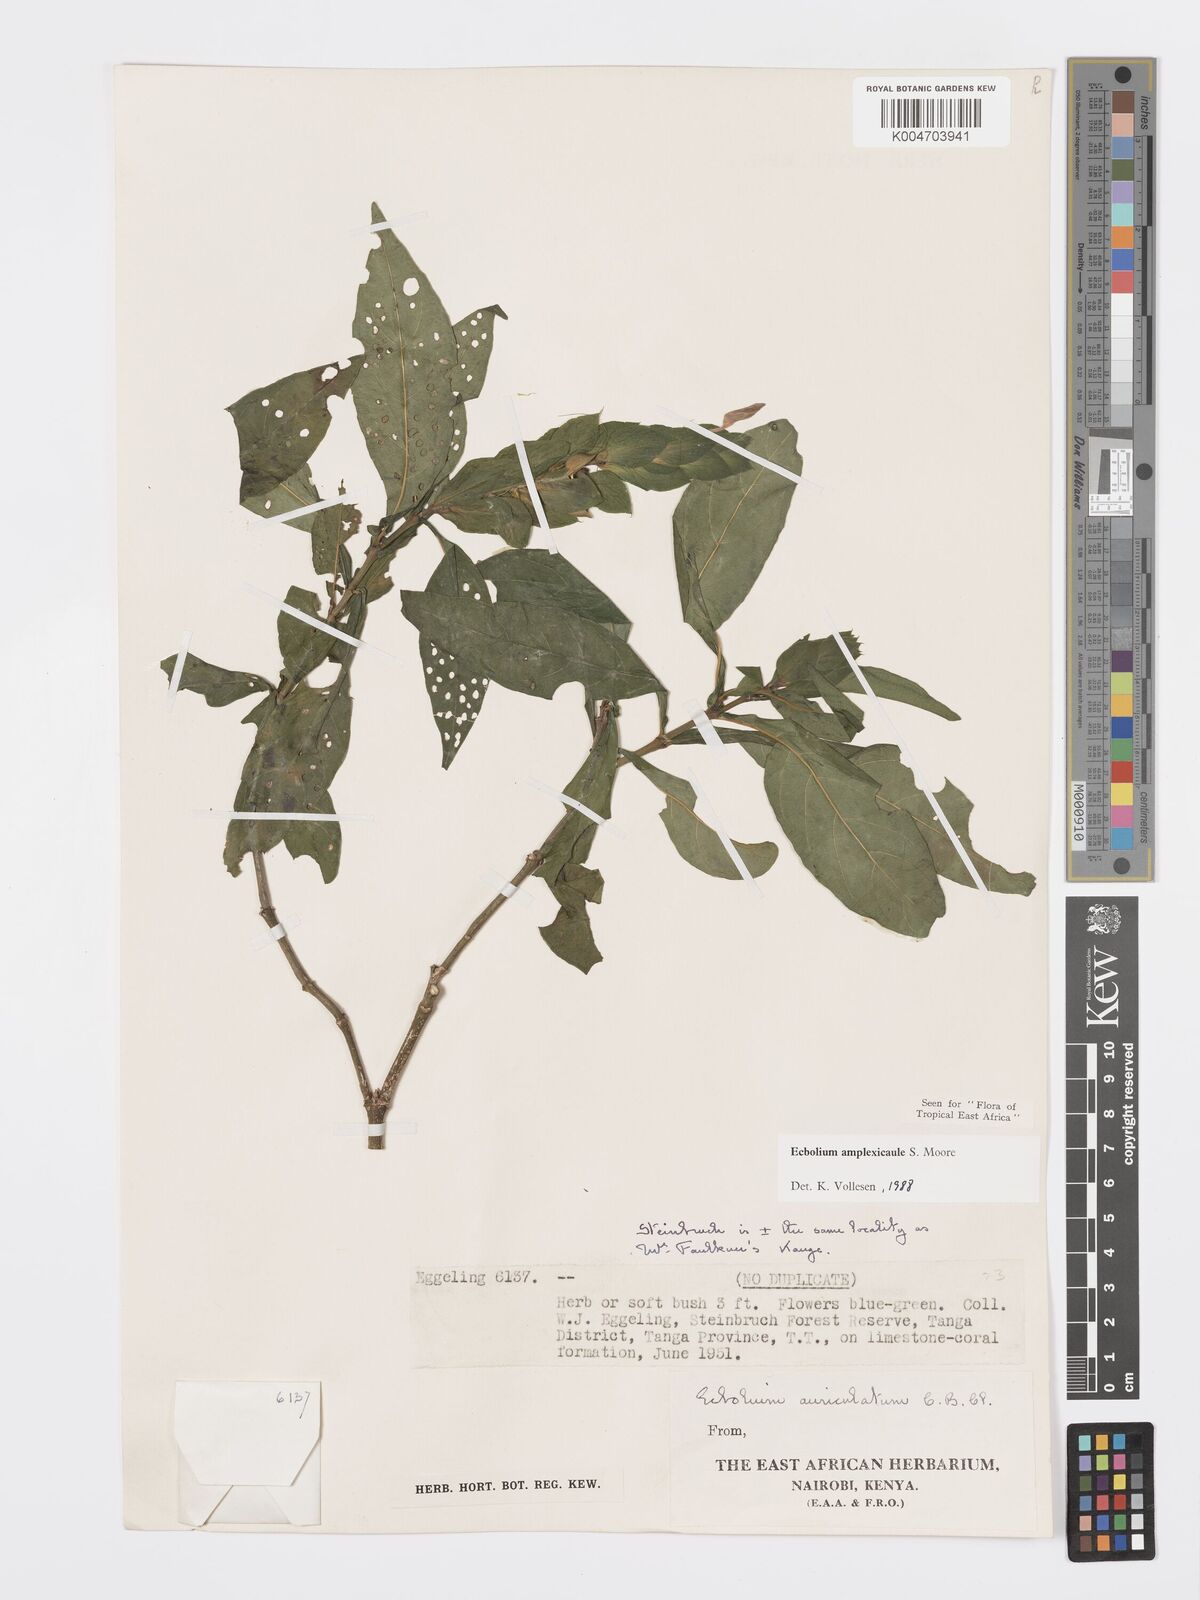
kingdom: Plantae
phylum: Tracheophyta
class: Magnoliopsida
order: Lamiales
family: Acanthaceae
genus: Ecbolium
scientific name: Ecbolium amplexicaule
